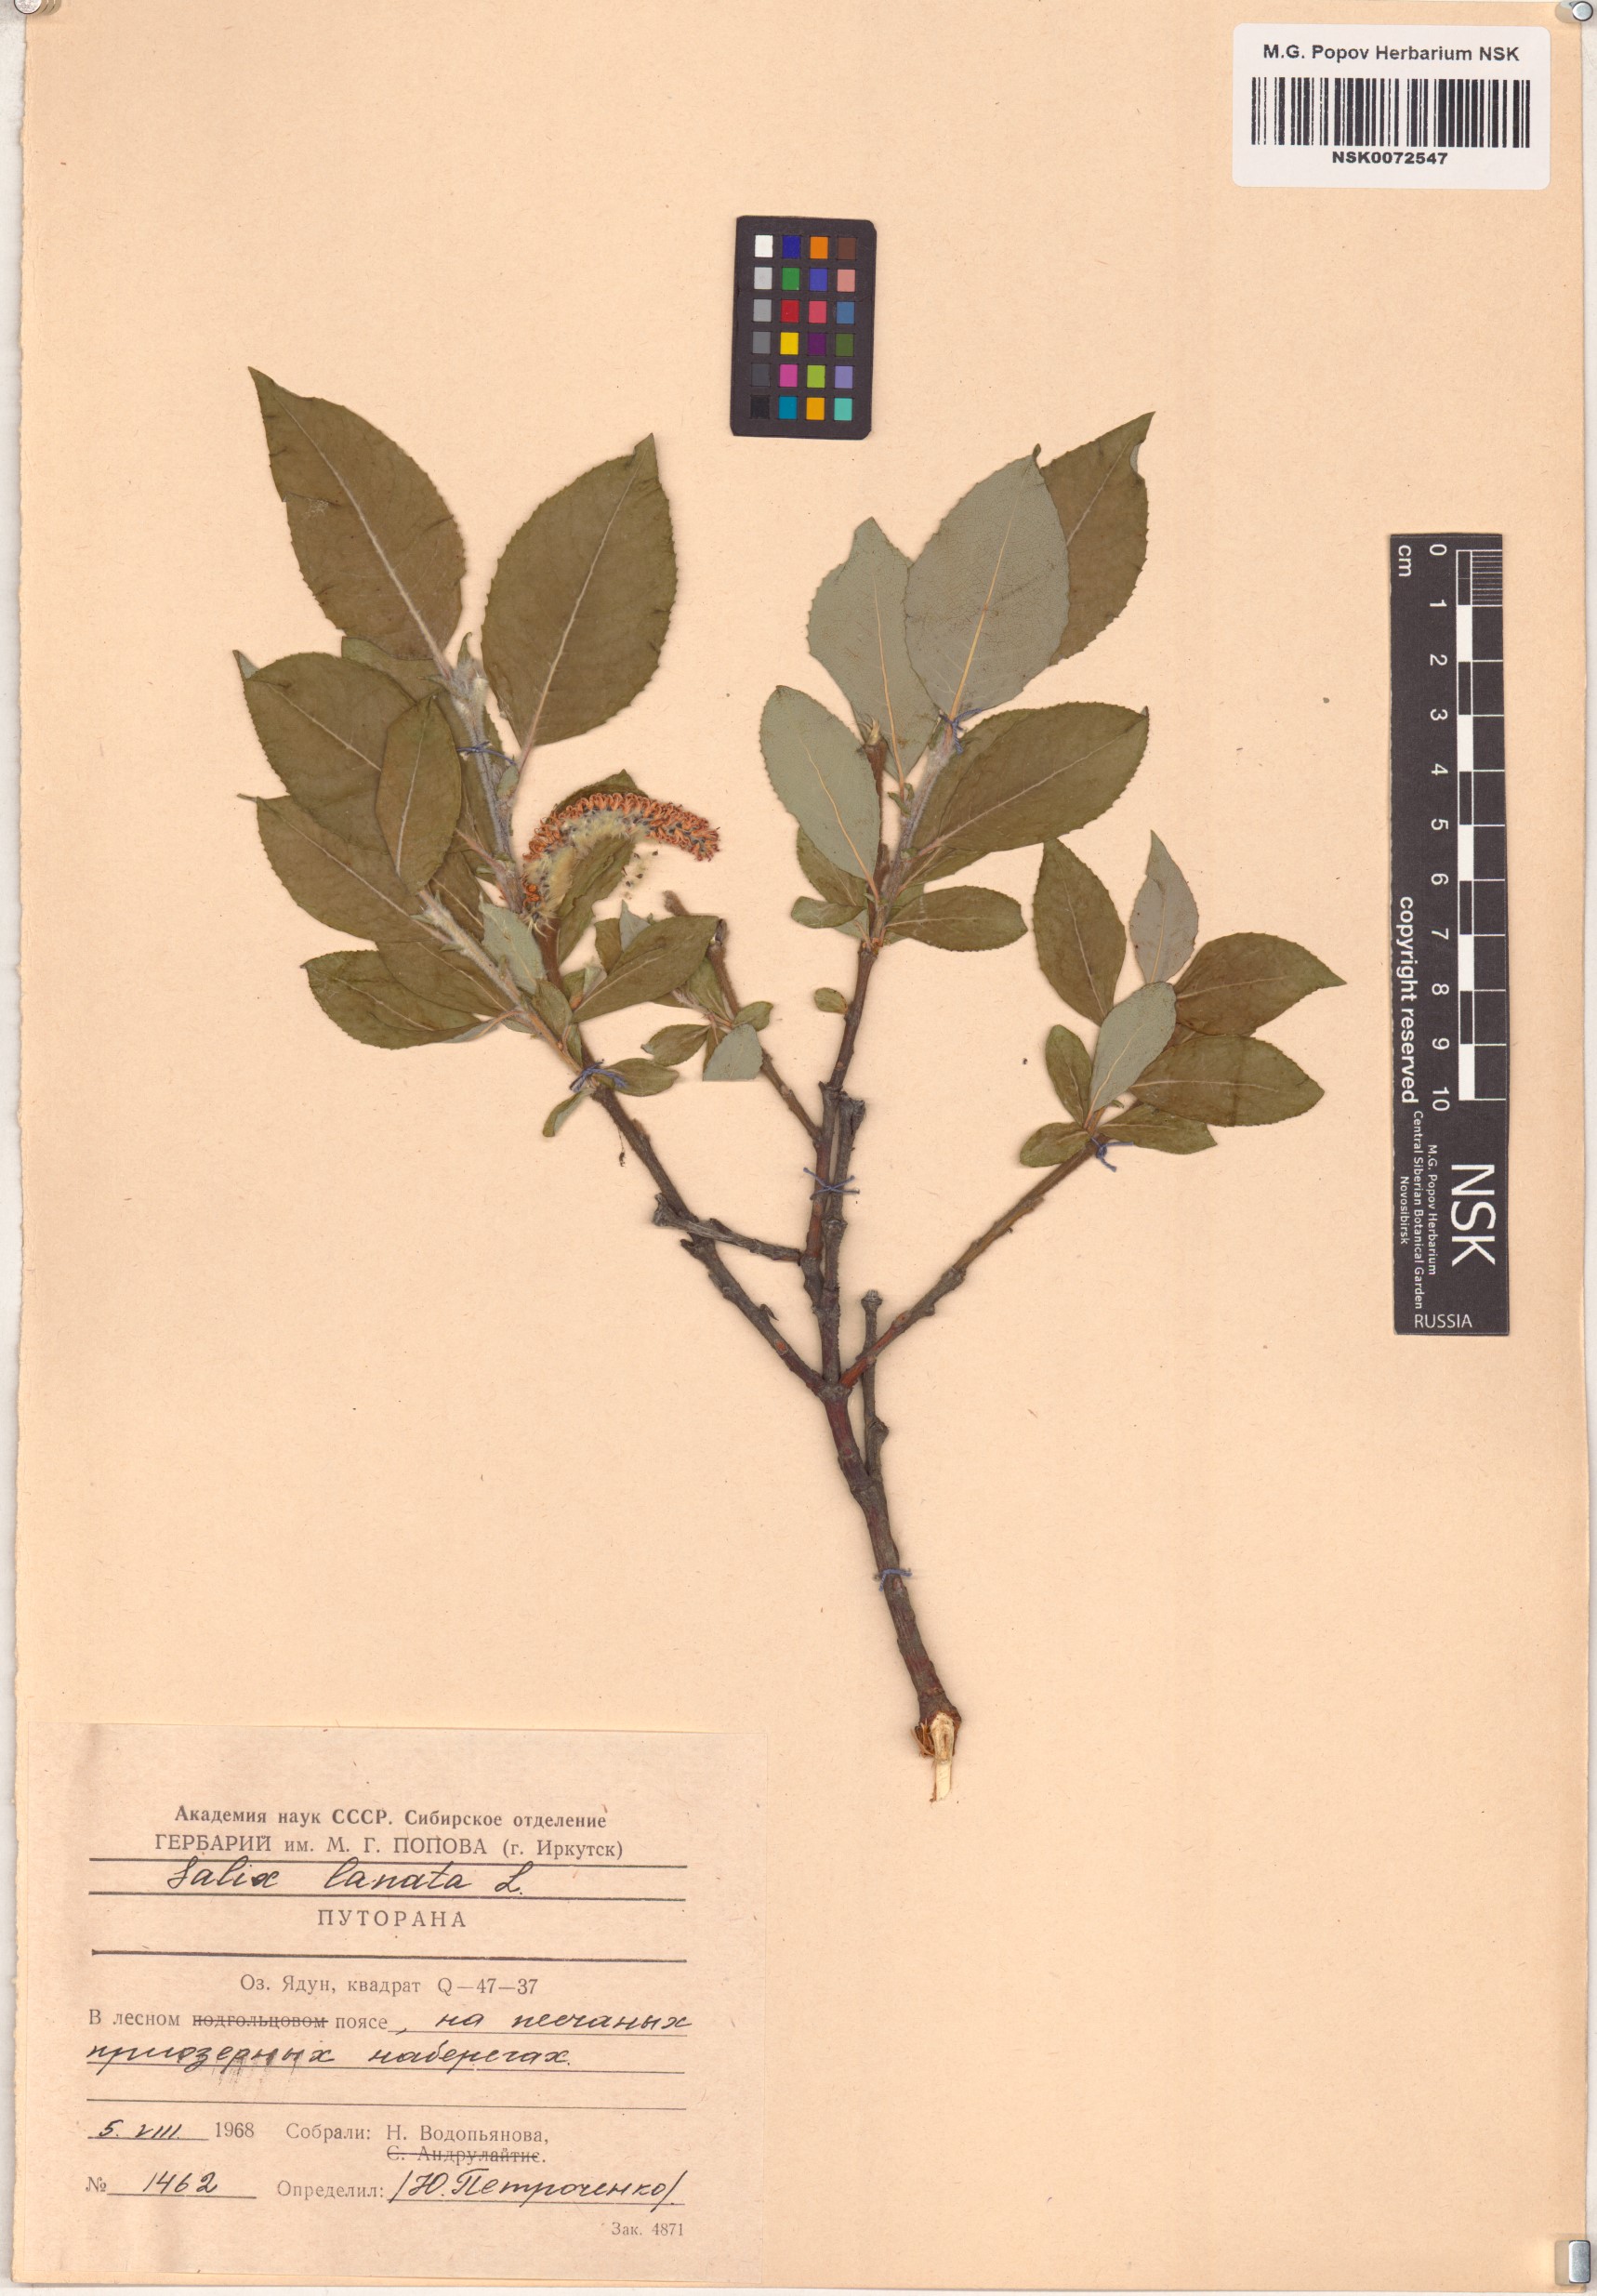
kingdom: Plantae
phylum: Tracheophyta
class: Magnoliopsida
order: Malpighiales
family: Salicaceae
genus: Salix
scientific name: Salix lanata
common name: Woolly willow
